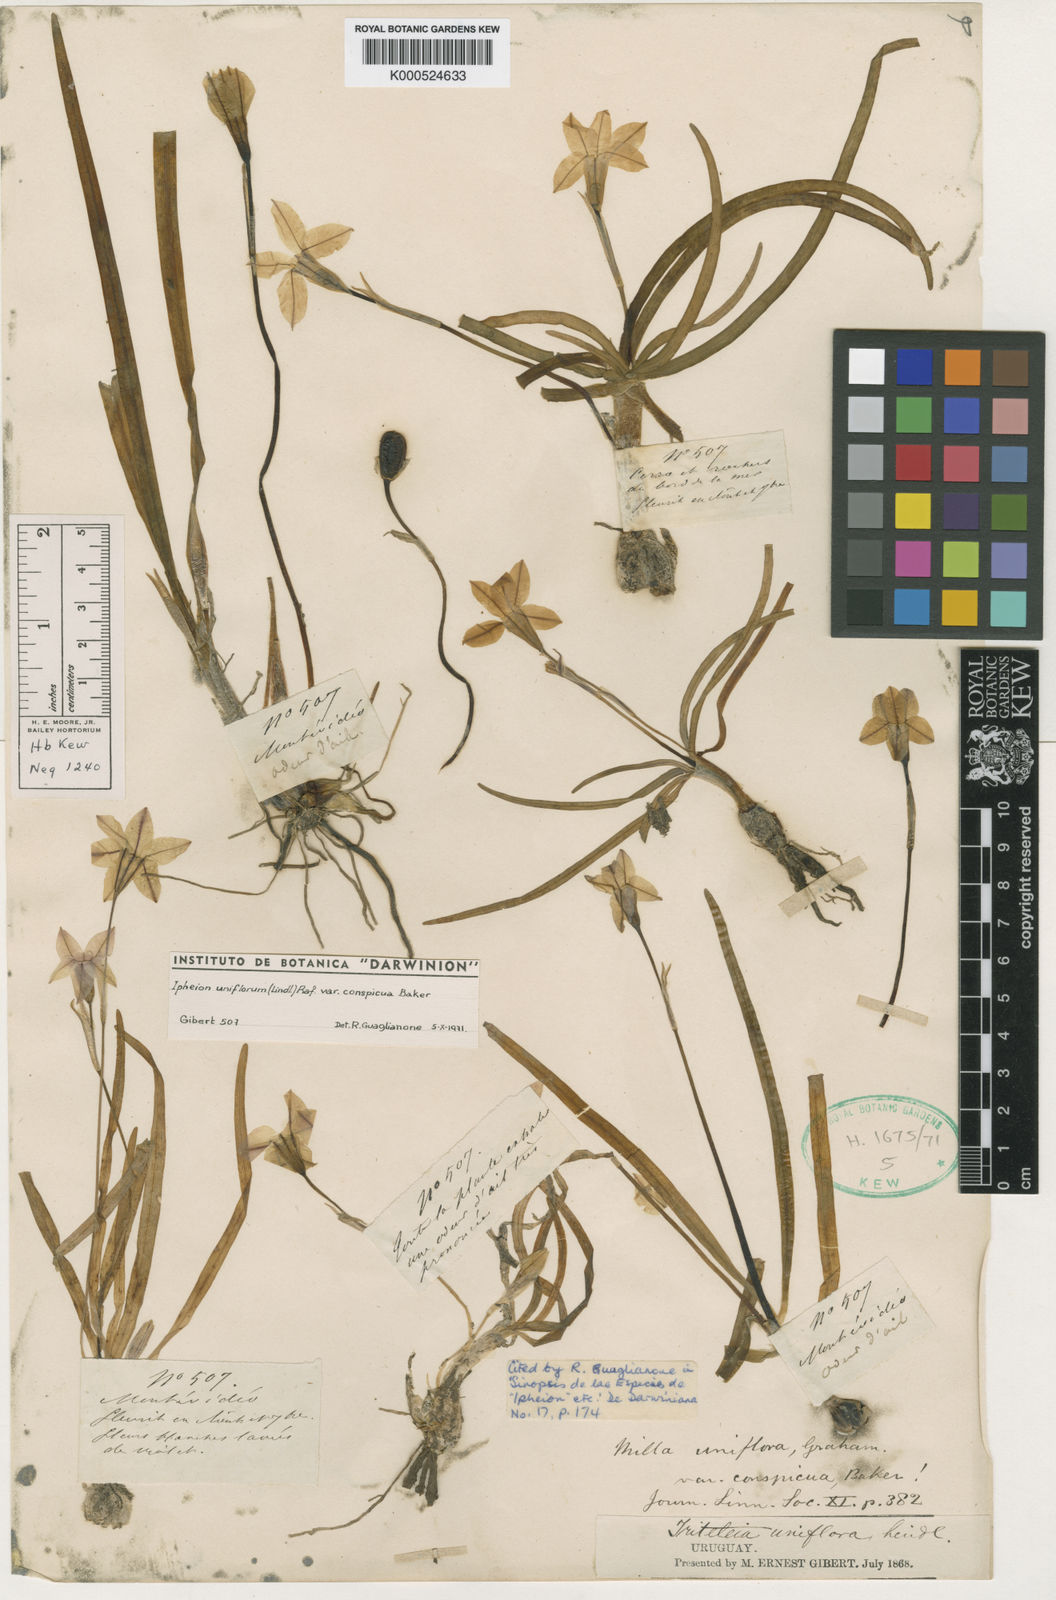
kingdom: Plantae
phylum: Tracheophyta
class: Liliopsida
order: Asparagales
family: Amaryllidaceae
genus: Ipheion
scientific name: Ipheion uniflorum
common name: Spring starflower
